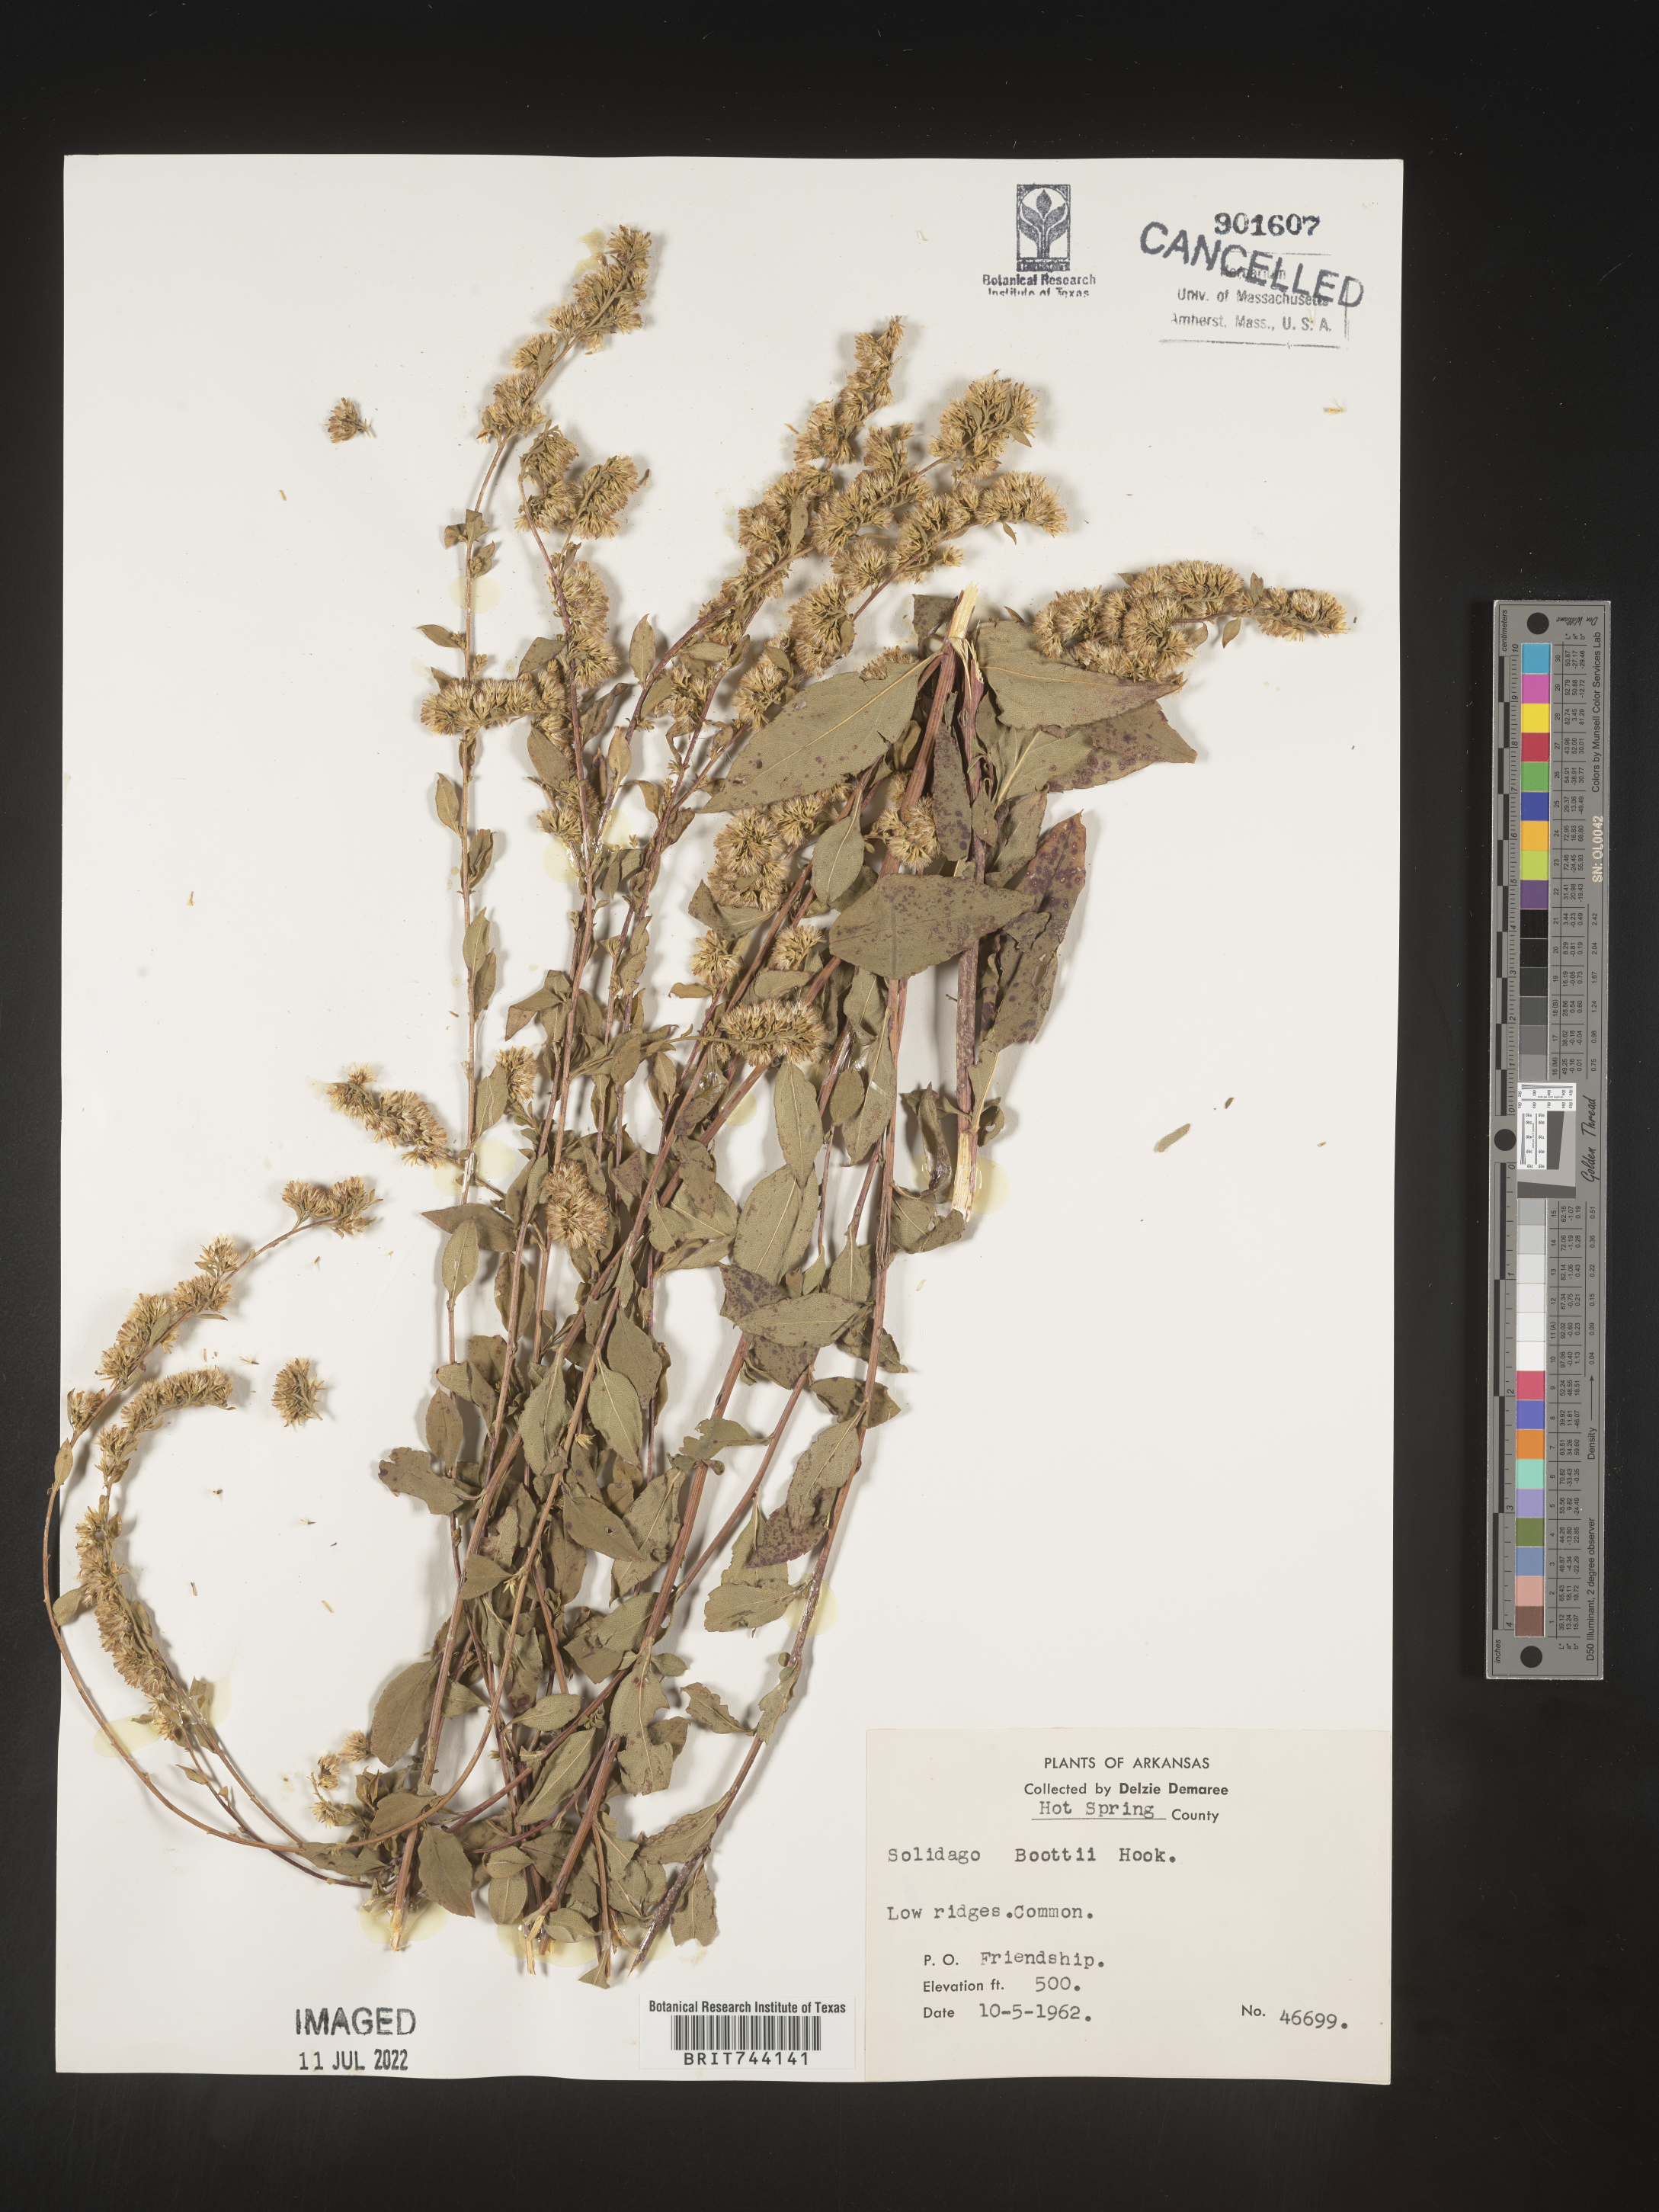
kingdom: Plantae
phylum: Tracheophyta
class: Magnoliopsida
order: Asterales
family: Asteraceae
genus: Solidago
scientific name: Solidago arguta
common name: Atlantic goldenrod
